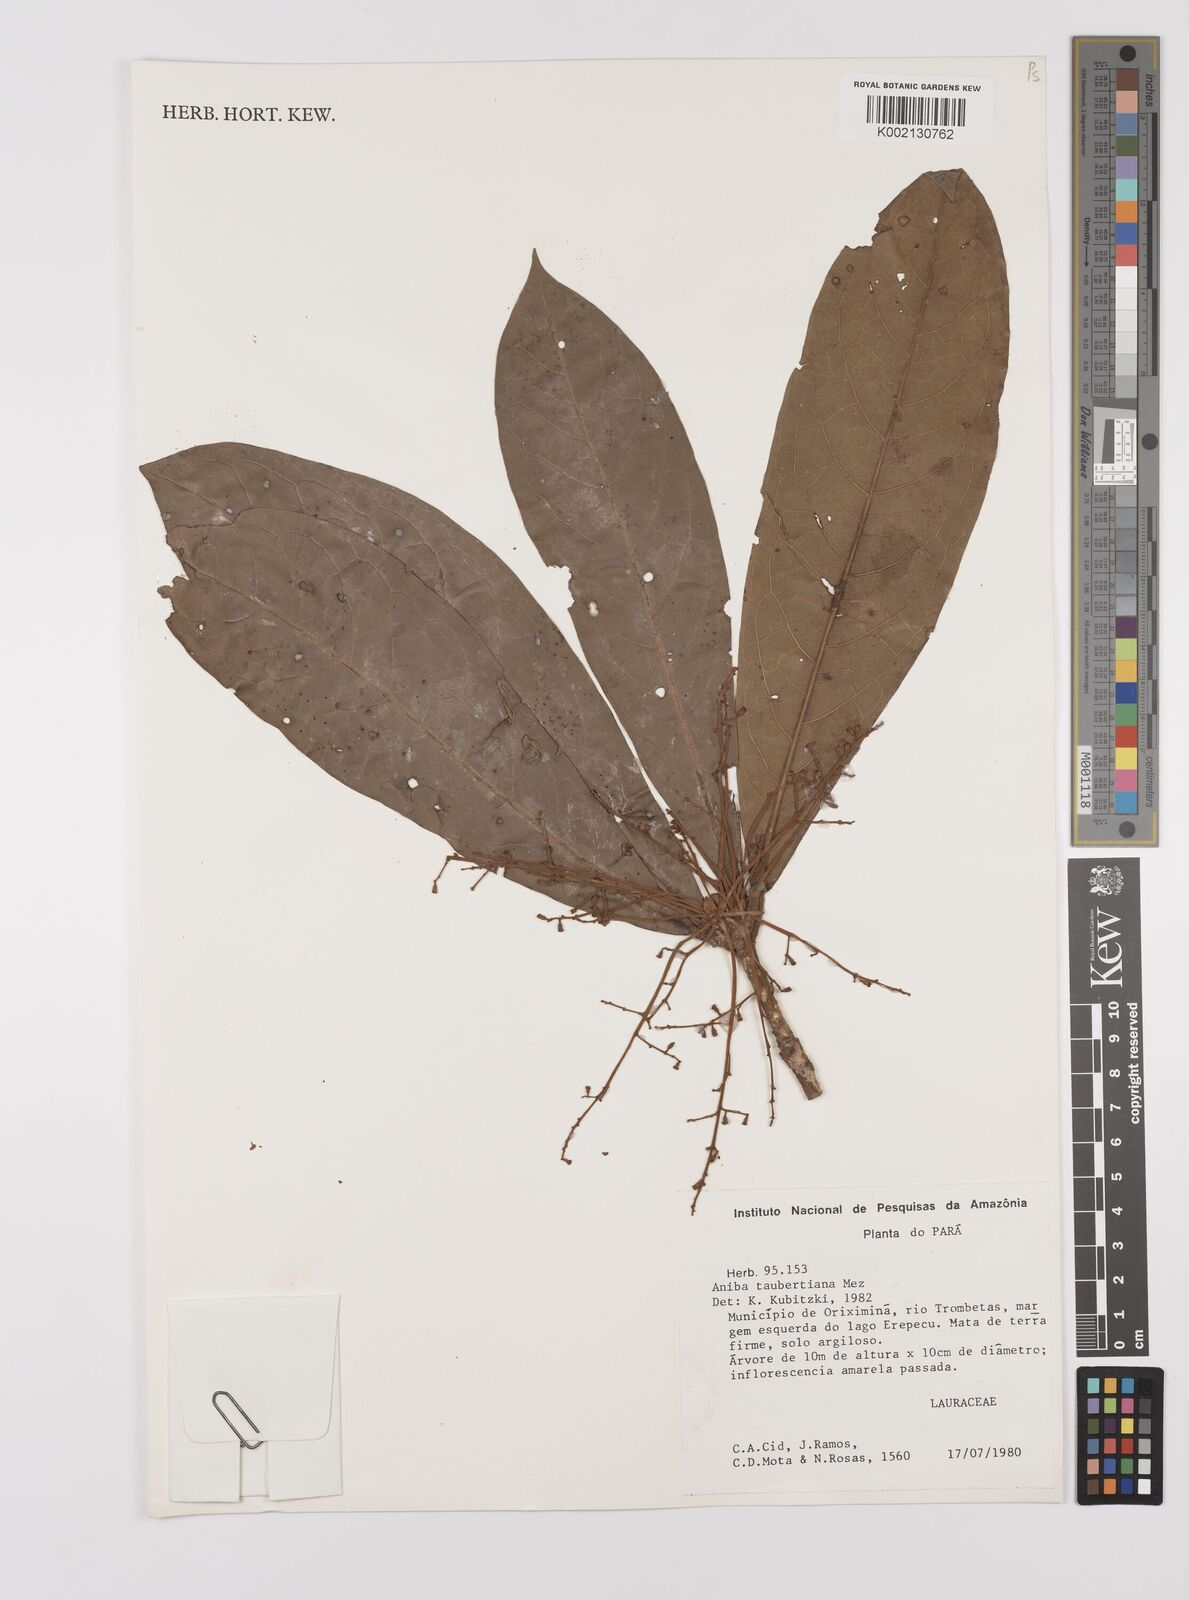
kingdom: Plantae
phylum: Tracheophyta
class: Magnoliopsida
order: Laurales
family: Lauraceae
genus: Aniba
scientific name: Aniba taubertiana
